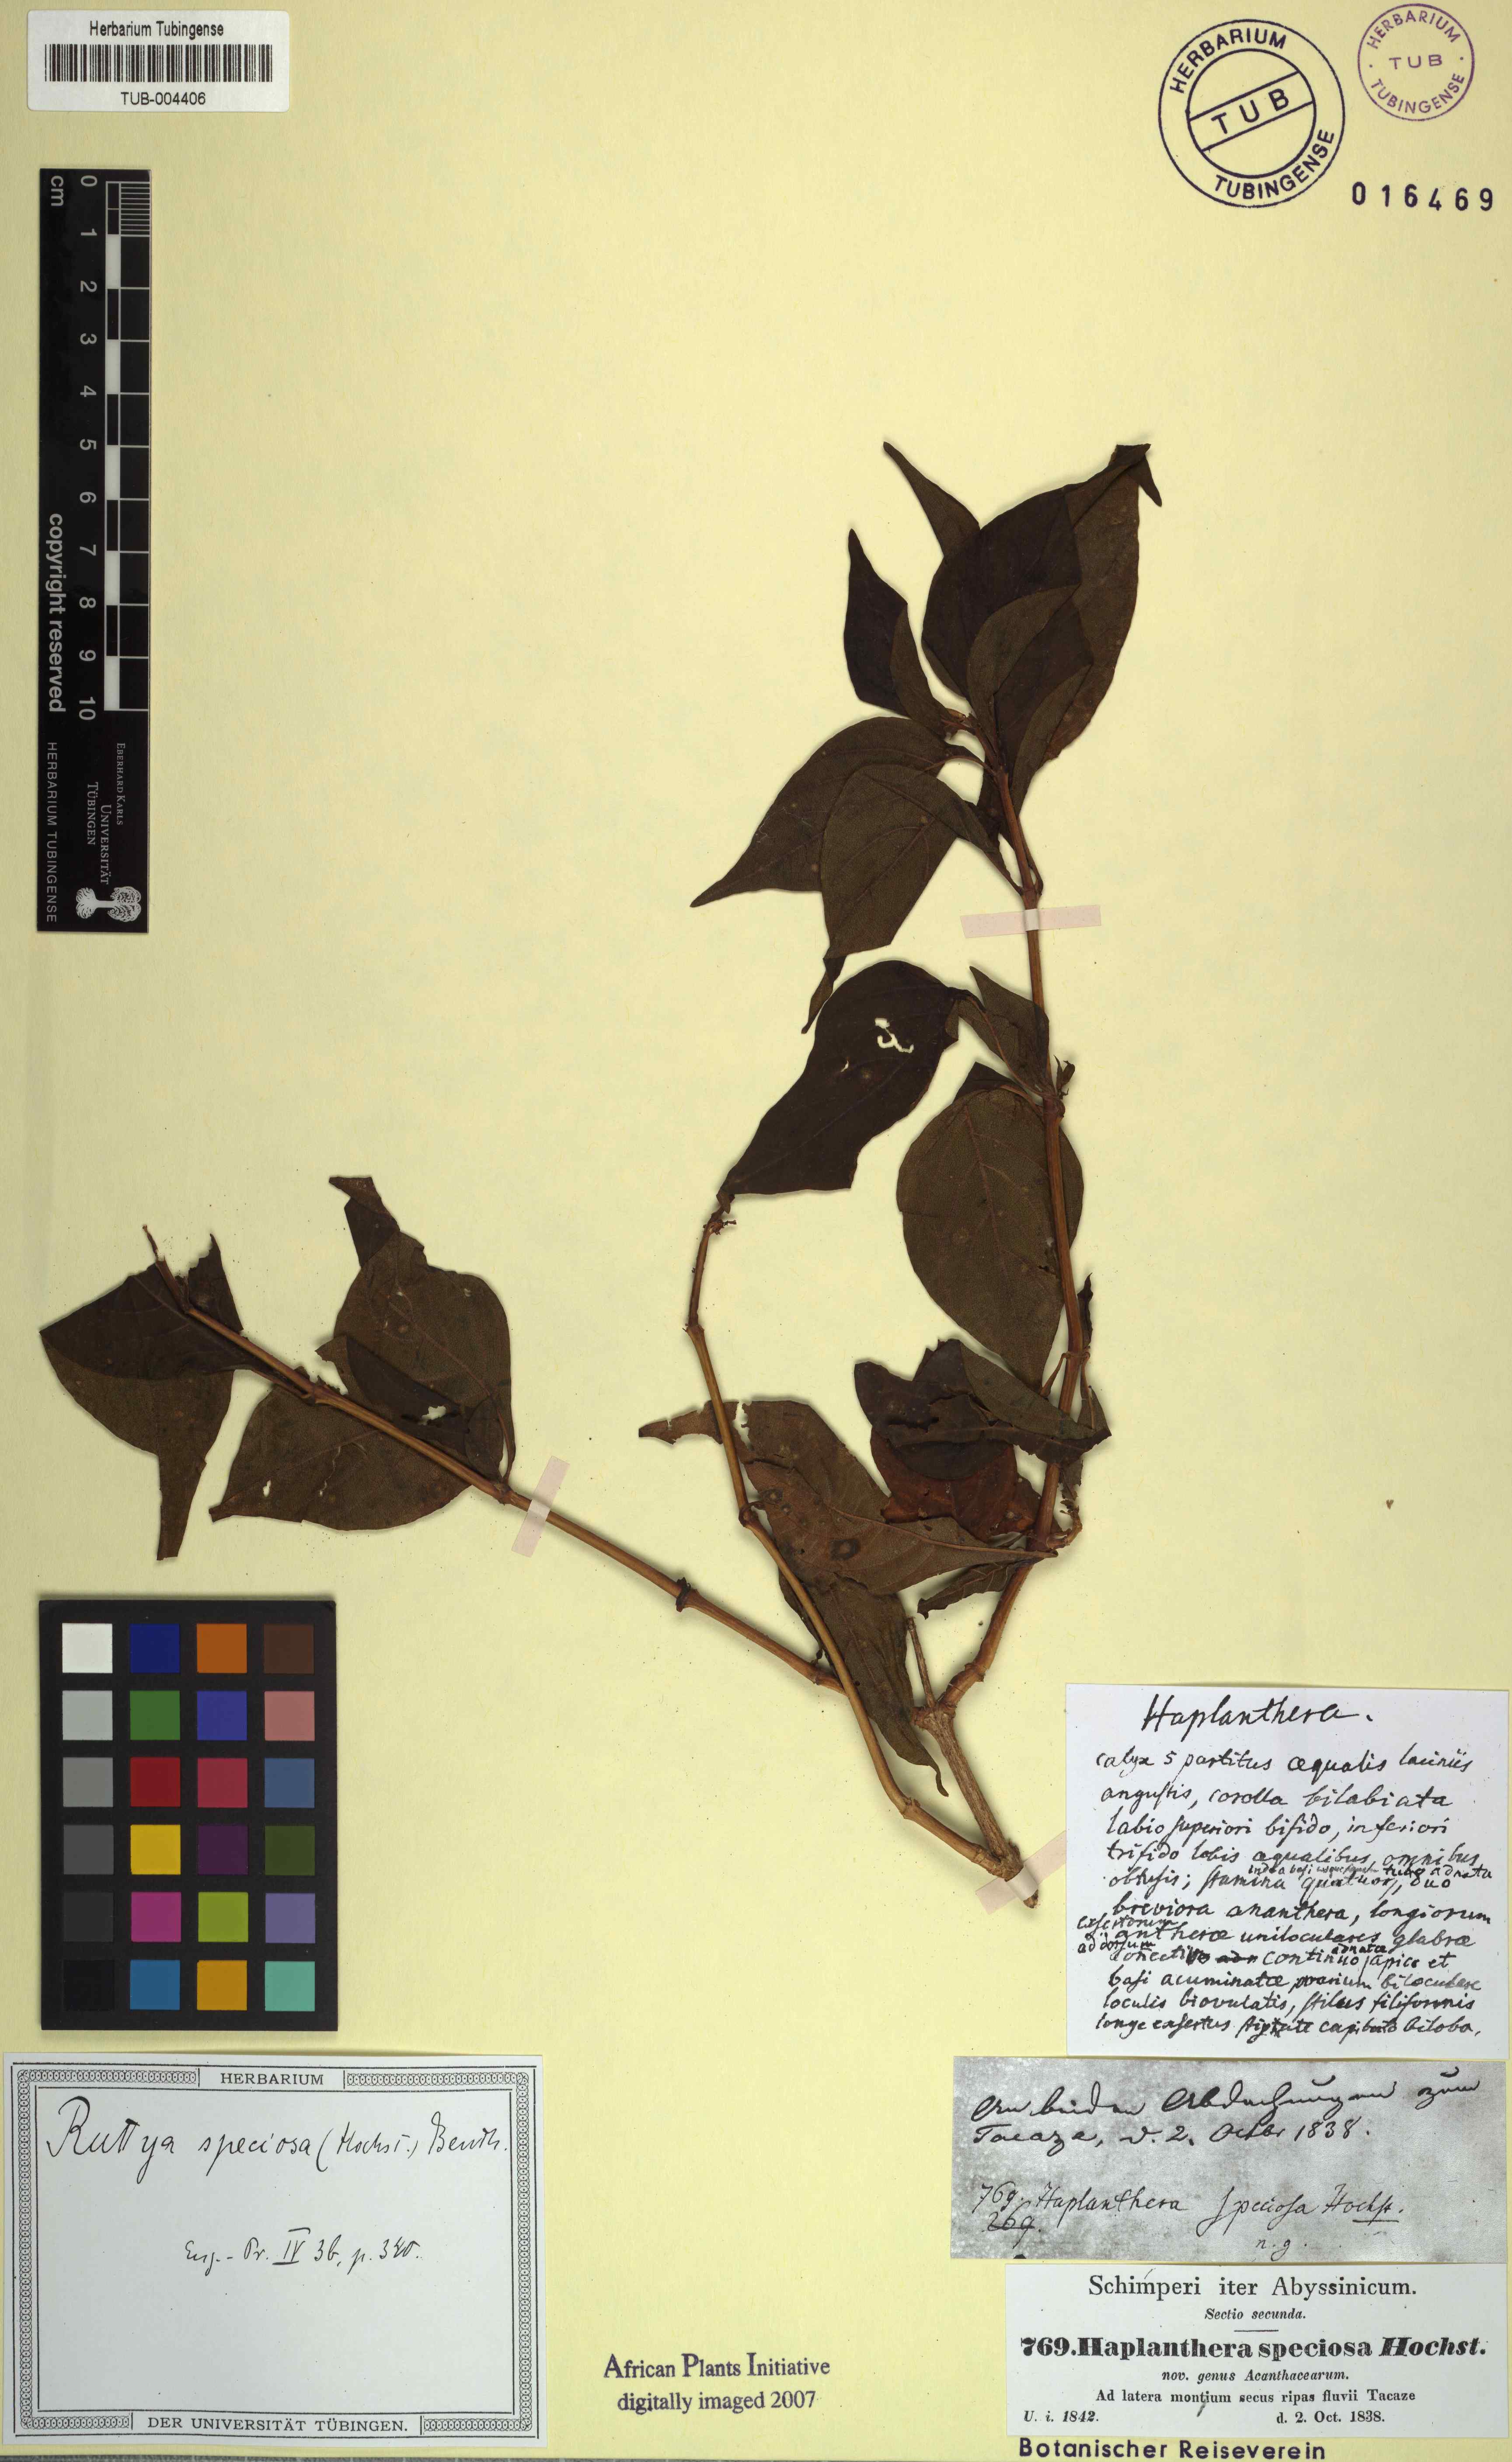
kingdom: Plantae
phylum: Tracheophyta
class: Magnoliopsida
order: Lamiales
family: Acanthaceae
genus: Ruttya
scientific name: Ruttya speciosa
